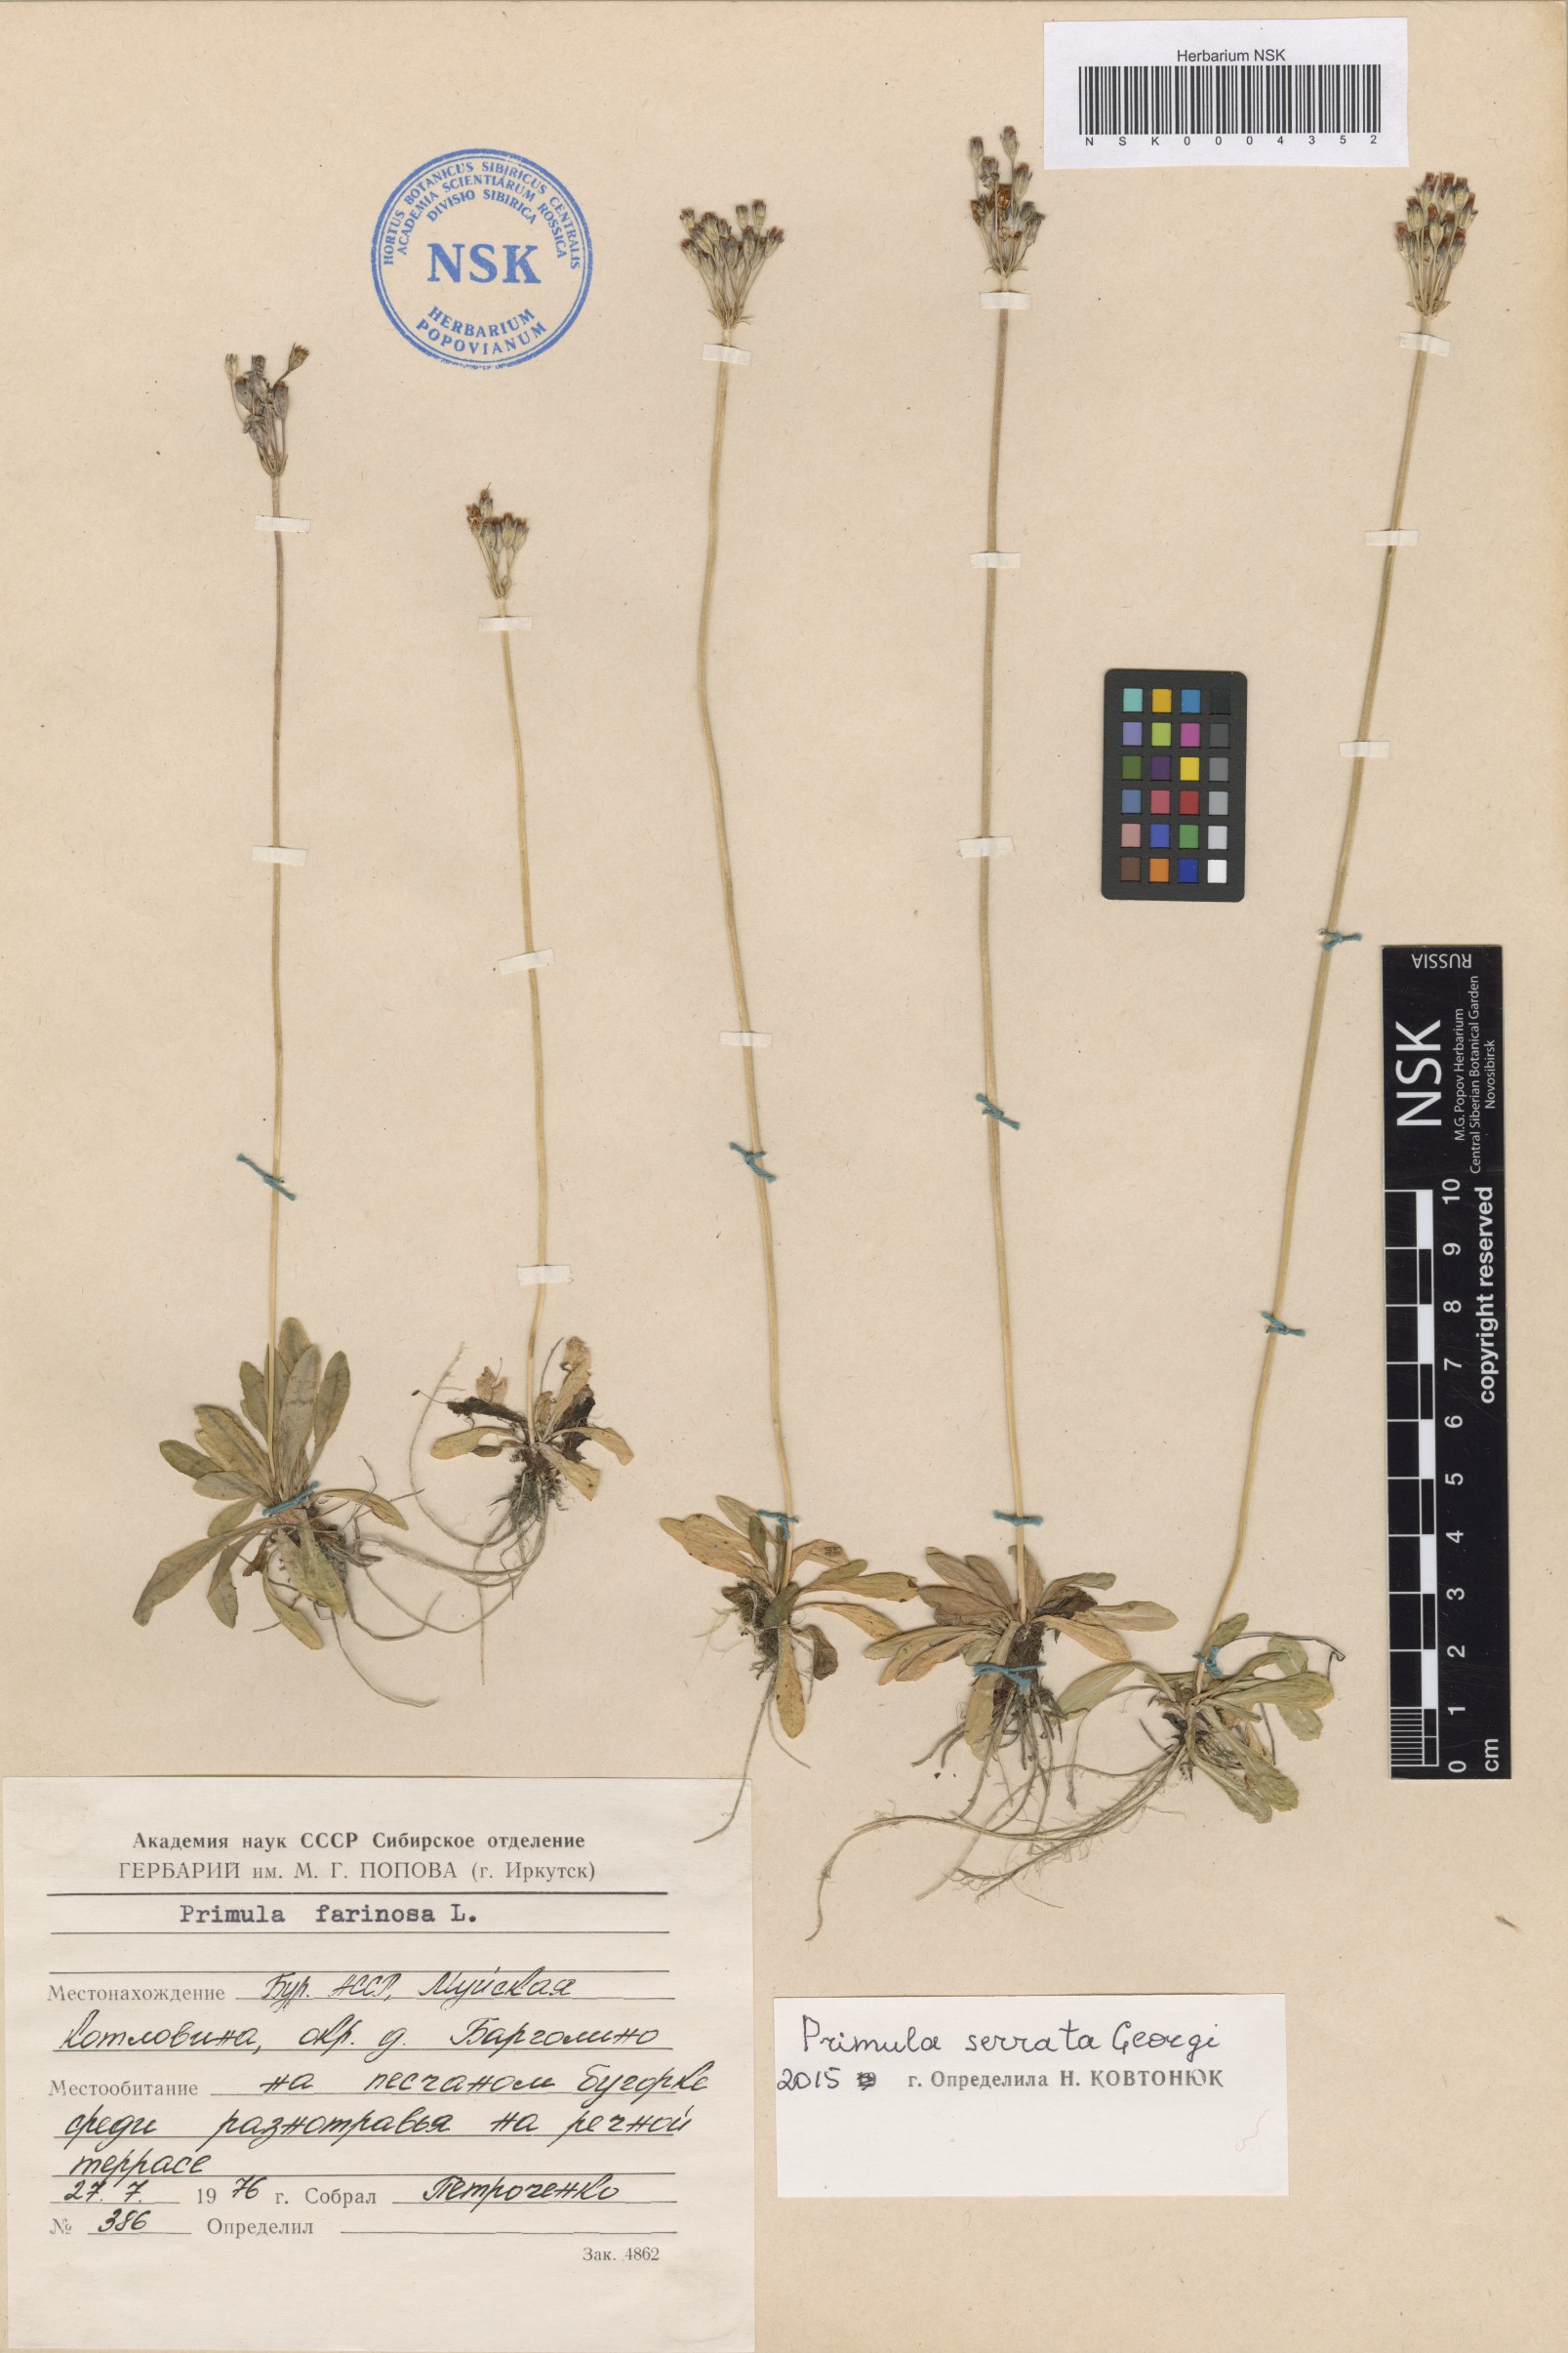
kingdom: Plantae
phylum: Tracheophyta
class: Magnoliopsida
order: Ericales
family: Primulaceae
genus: Primula
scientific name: Primula serrata
